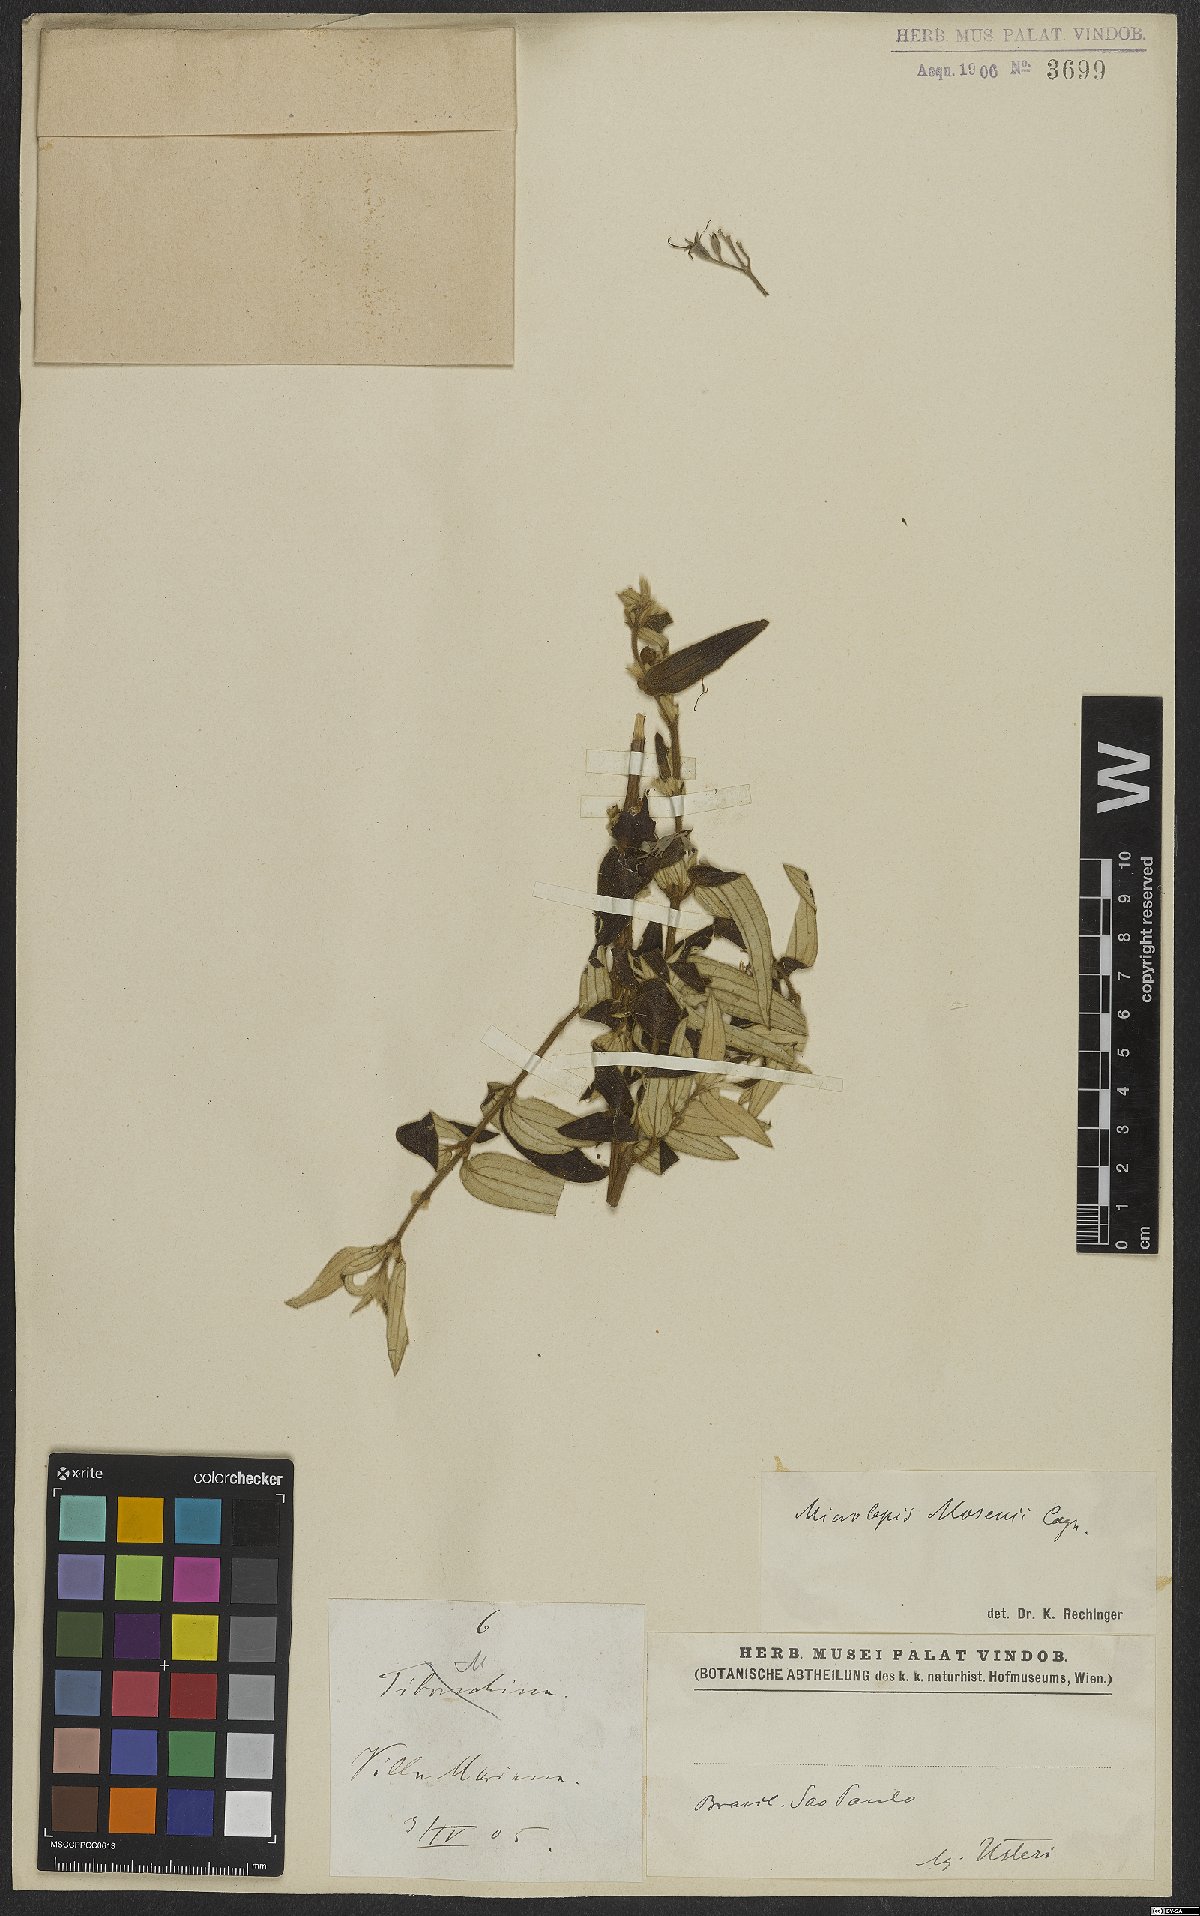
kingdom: Plantae
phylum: Tracheophyta
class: Magnoliopsida
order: Myrtales
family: Melastomataceae
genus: Pleroma
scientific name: Pleroma oleifolia
